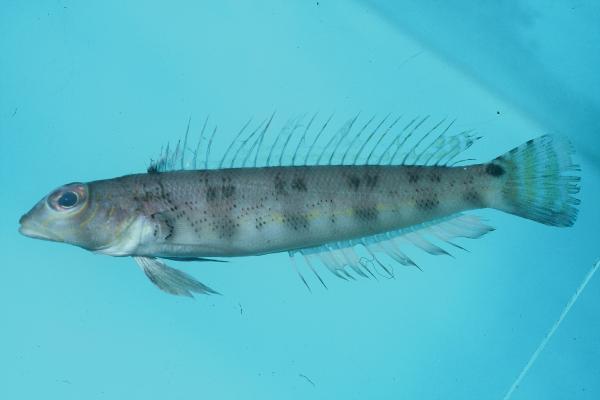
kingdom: Animalia
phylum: Chordata
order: Perciformes
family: Pinguipedidae
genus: Parapercis
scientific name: Parapercis lutevittata
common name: Yellow-striped sandperch
